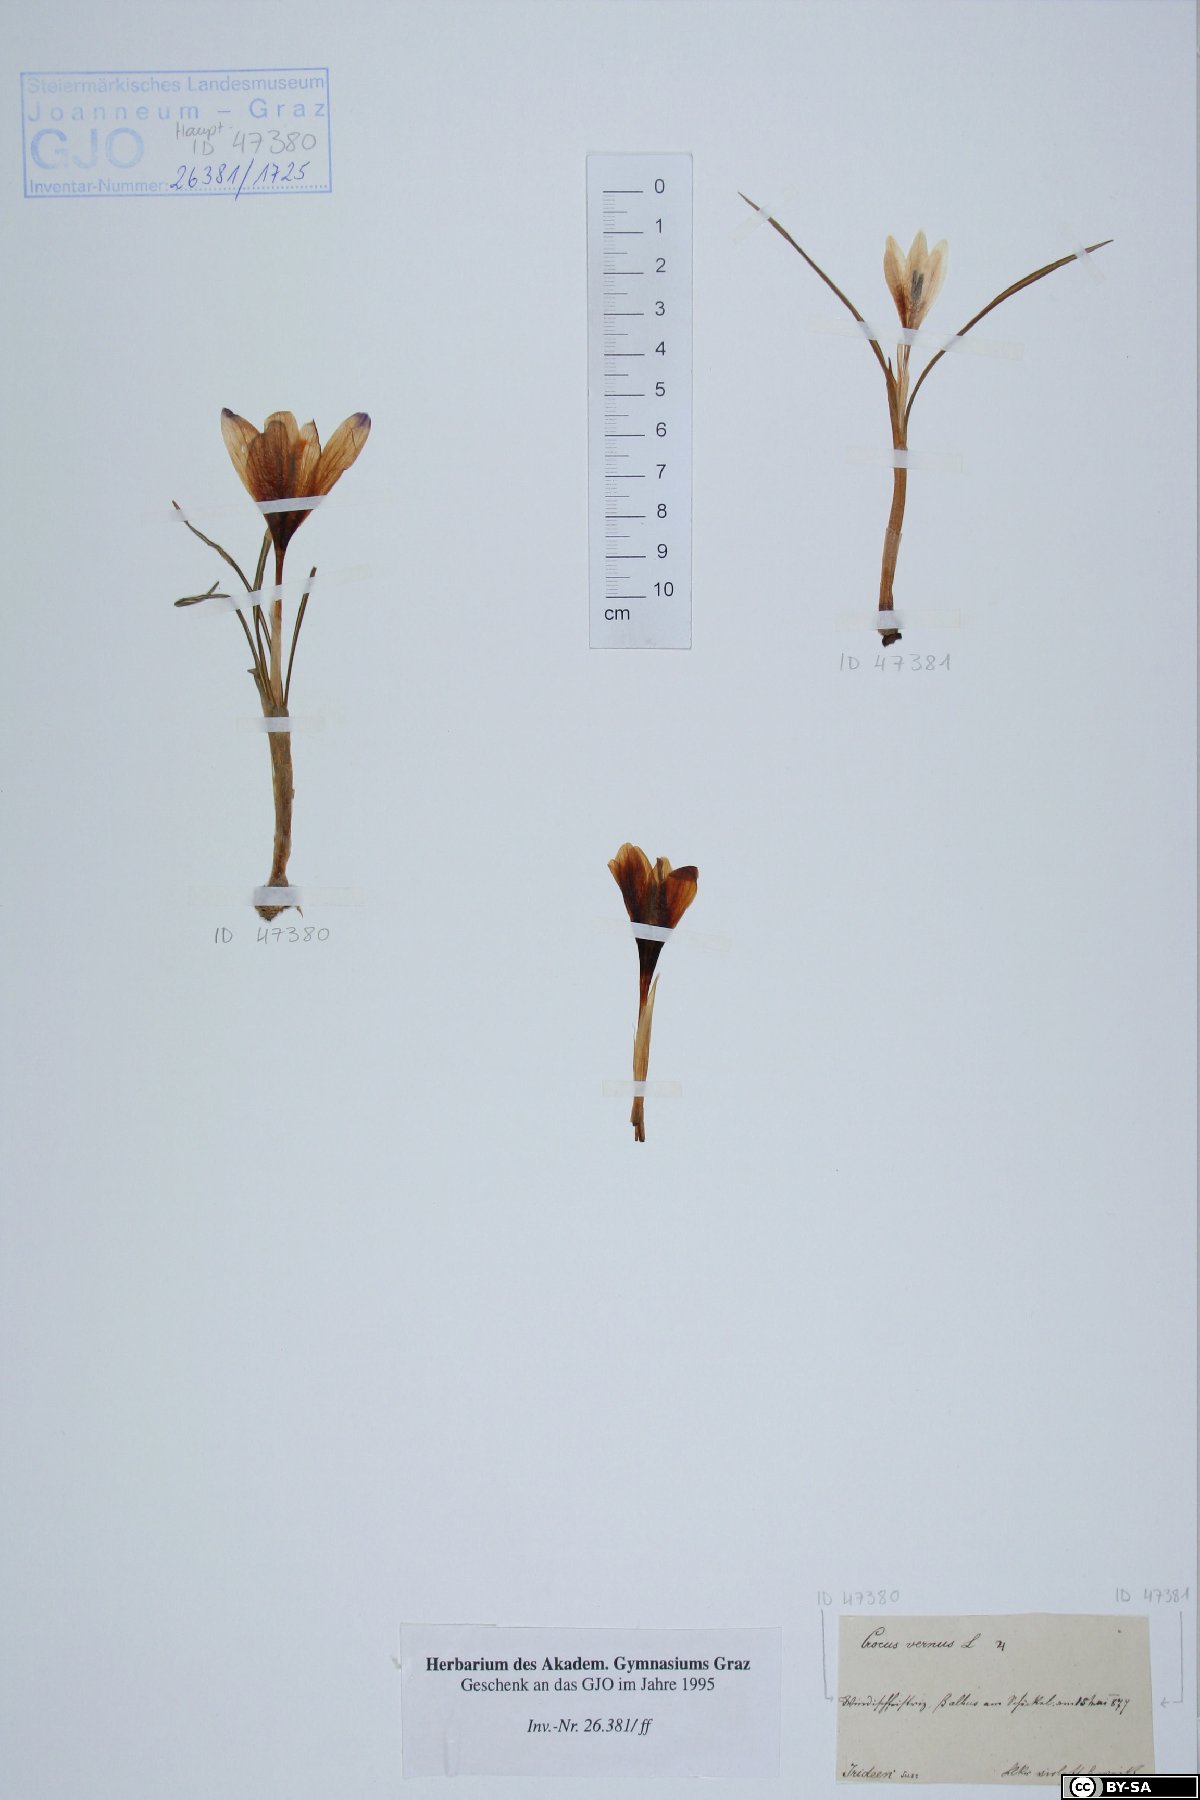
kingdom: Plantae
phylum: Tracheophyta
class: Liliopsida
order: Asparagales
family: Iridaceae
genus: Crocus
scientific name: Crocus vernus
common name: Spring crocus
